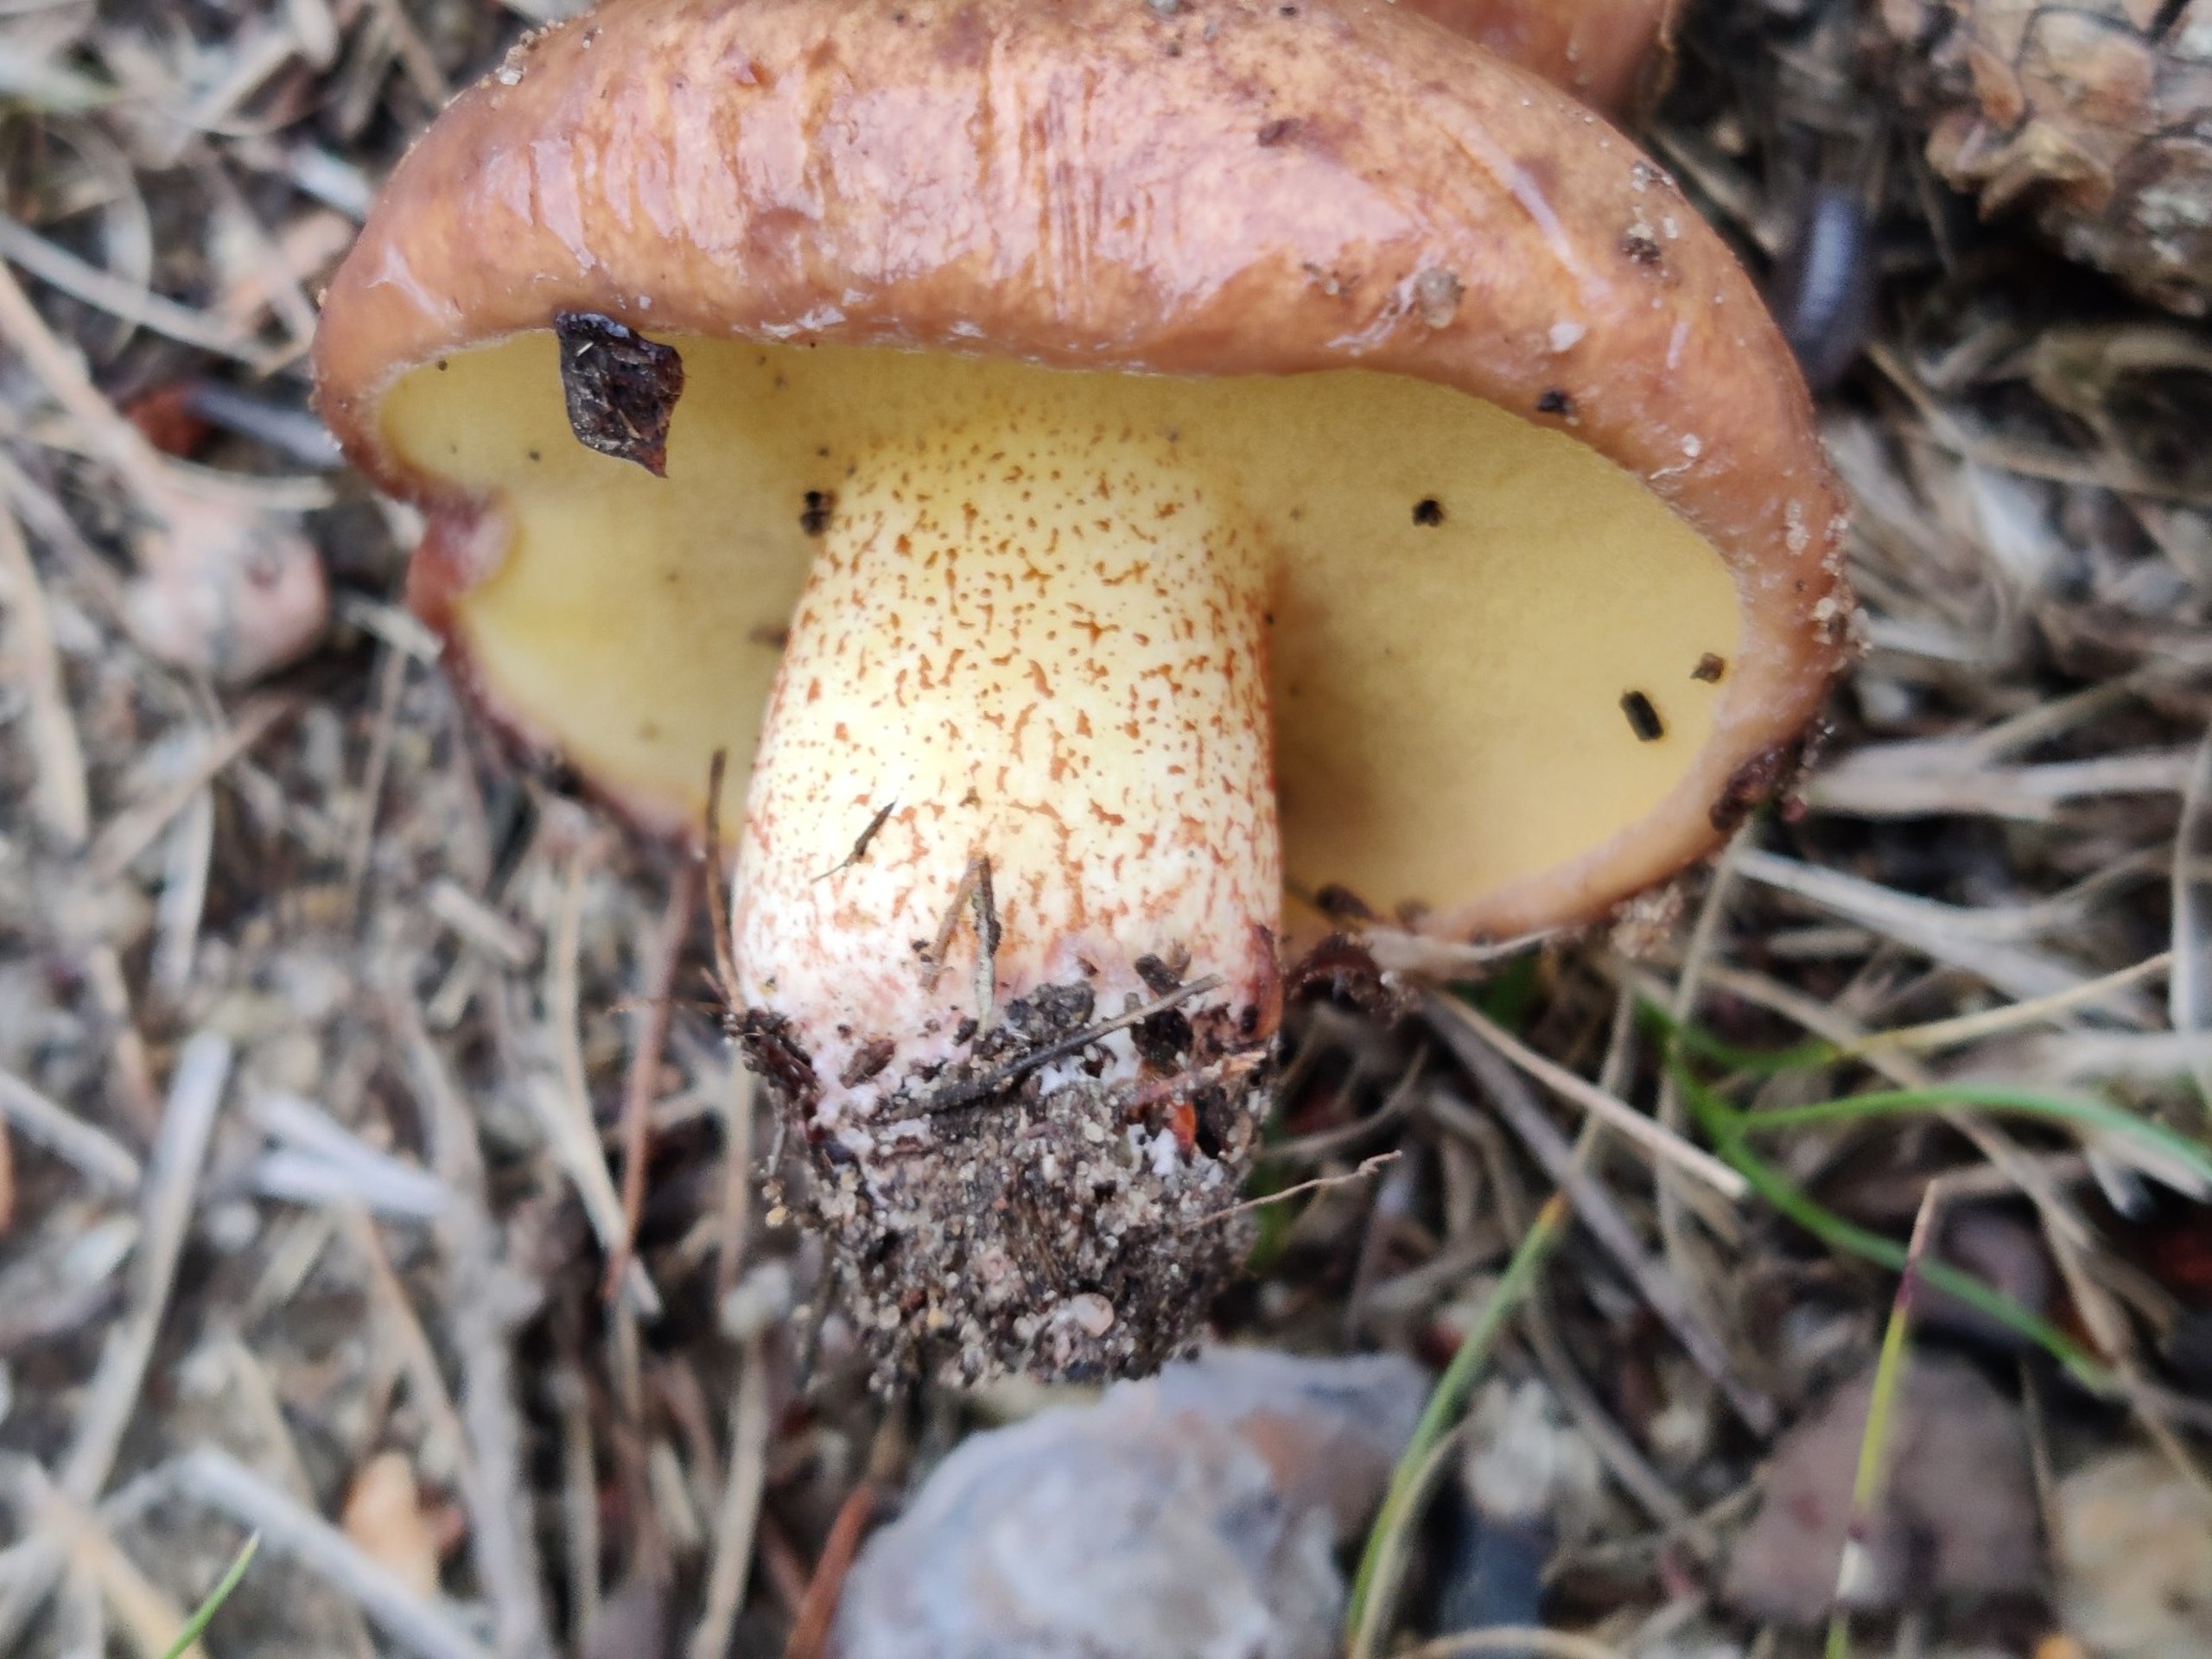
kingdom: Fungi
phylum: Basidiomycota
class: Agaricomycetes
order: Boletales
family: Suillaceae
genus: Suillus
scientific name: Suillus collinitus
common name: Rosafodet slimrørhat
